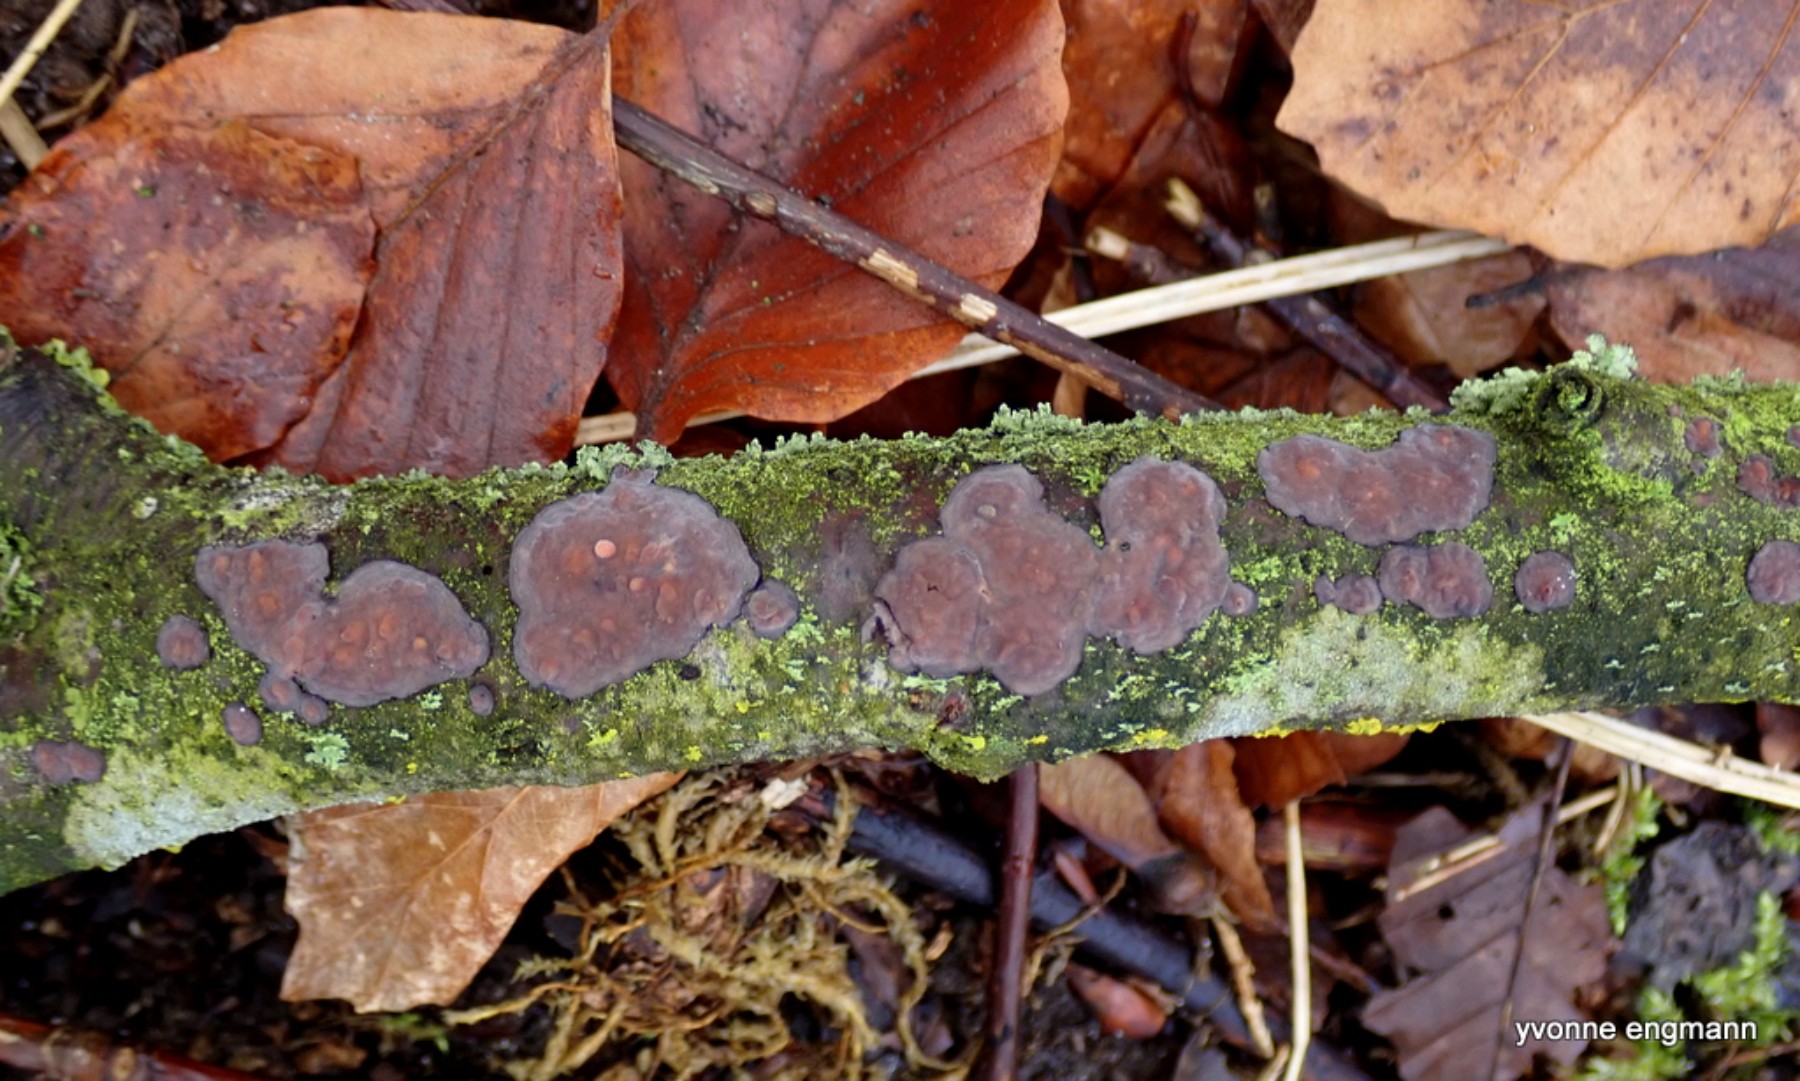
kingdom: Fungi
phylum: Basidiomycota
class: Agaricomycetes
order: Russulales
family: Peniophoraceae
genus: Peniophora
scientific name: Peniophora quercina
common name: ege-voksskind
